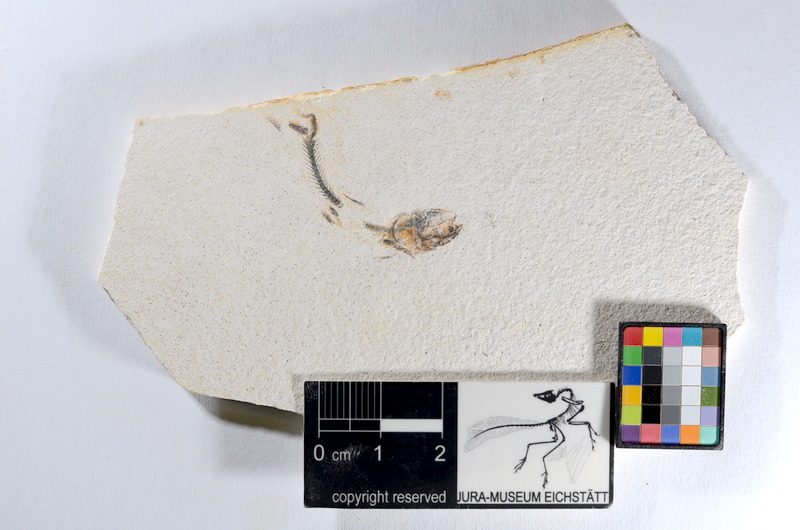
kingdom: Animalia
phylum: Chordata
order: Salmoniformes
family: Orthogonikleithridae
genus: Orthogonikleithrus
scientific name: Orthogonikleithrus hoelli
